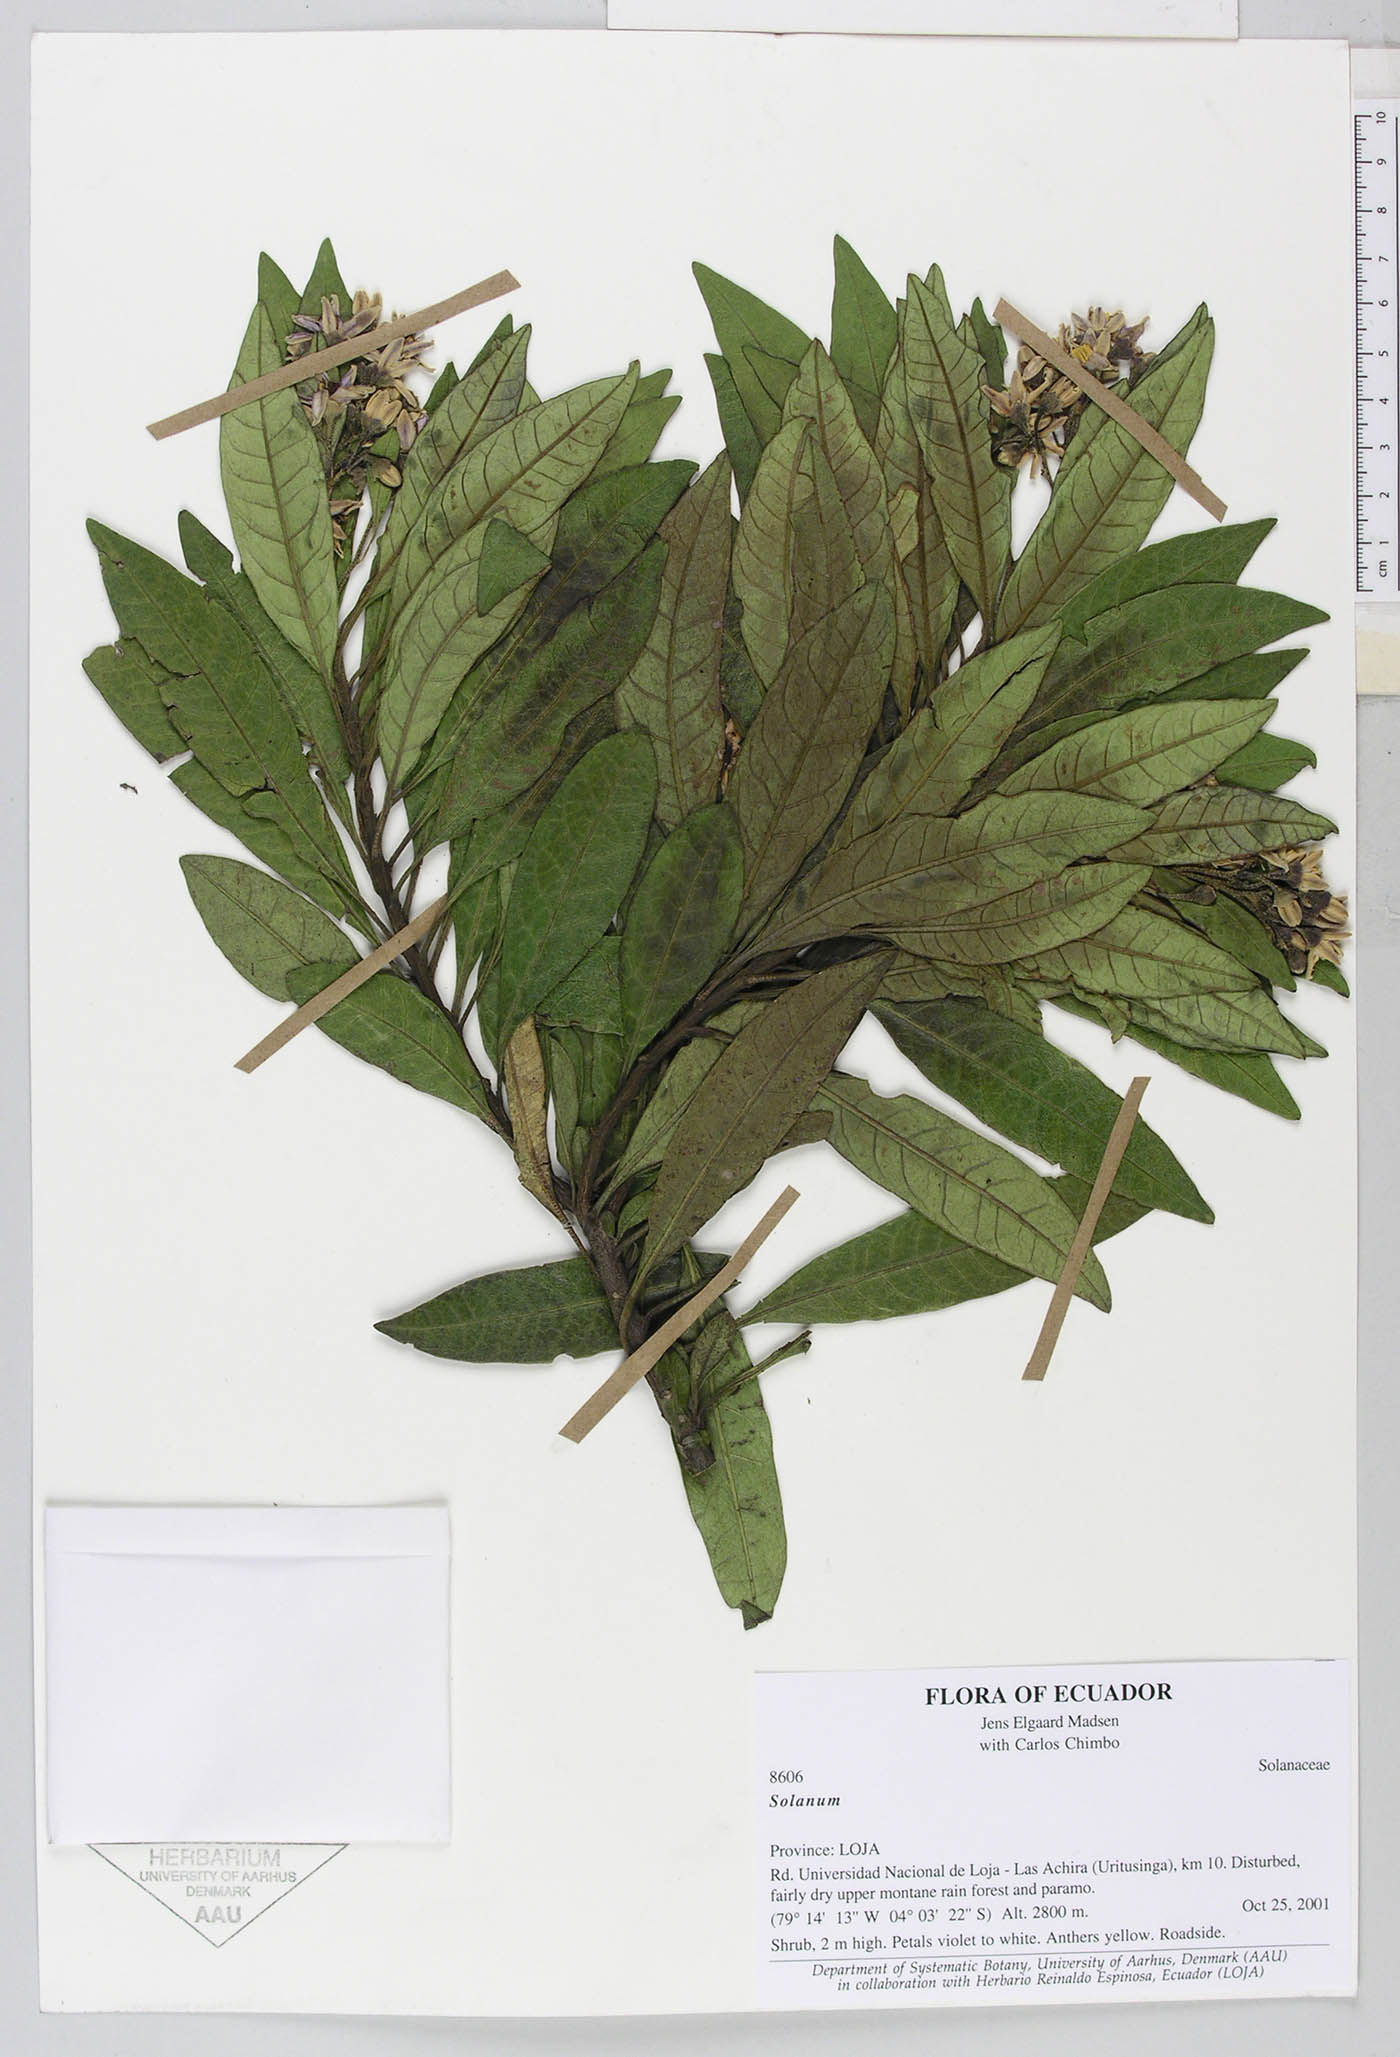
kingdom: Plantae
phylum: Tracheophyta
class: Magnoliopsida
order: Solanales
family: Solanaceae
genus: Solanum
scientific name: Solanum stenophyllum
